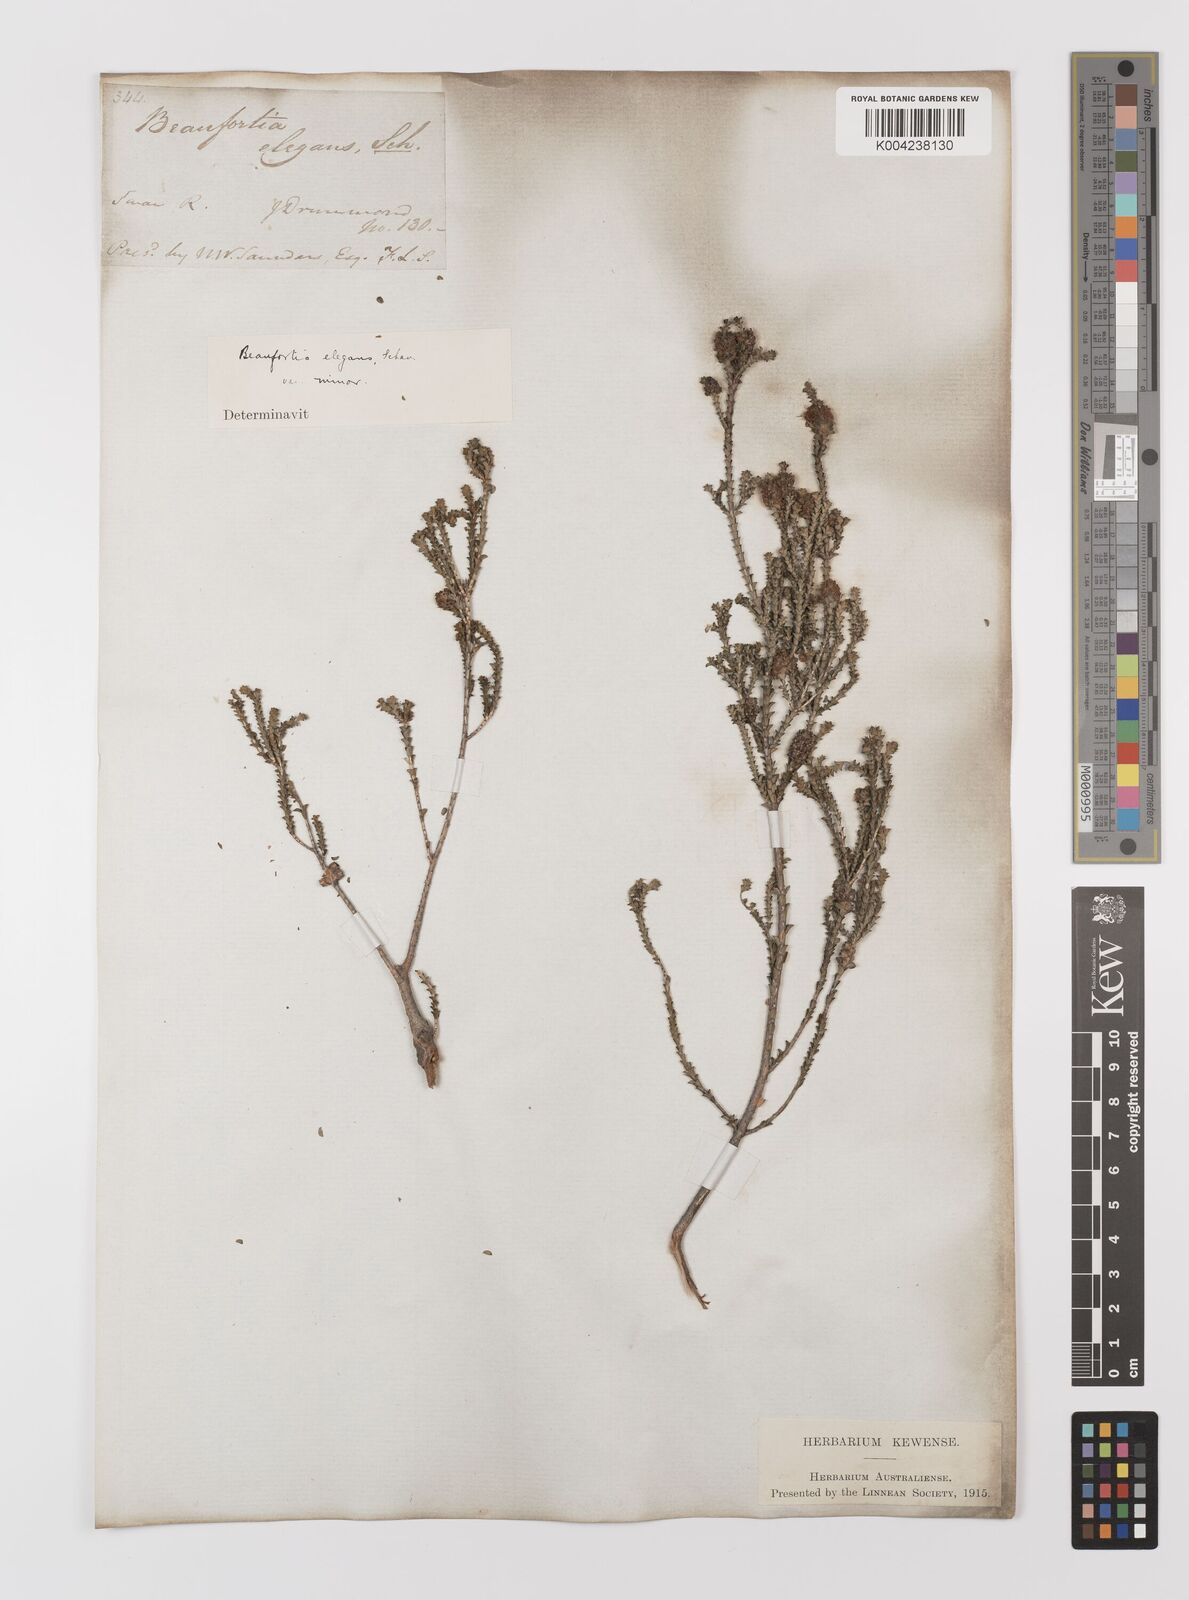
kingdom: Plantae
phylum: Tracheophyta
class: Magnoliopsida
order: Myrtales
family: Myrtaceae
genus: Melaleuca
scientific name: Melaleuca scitula
